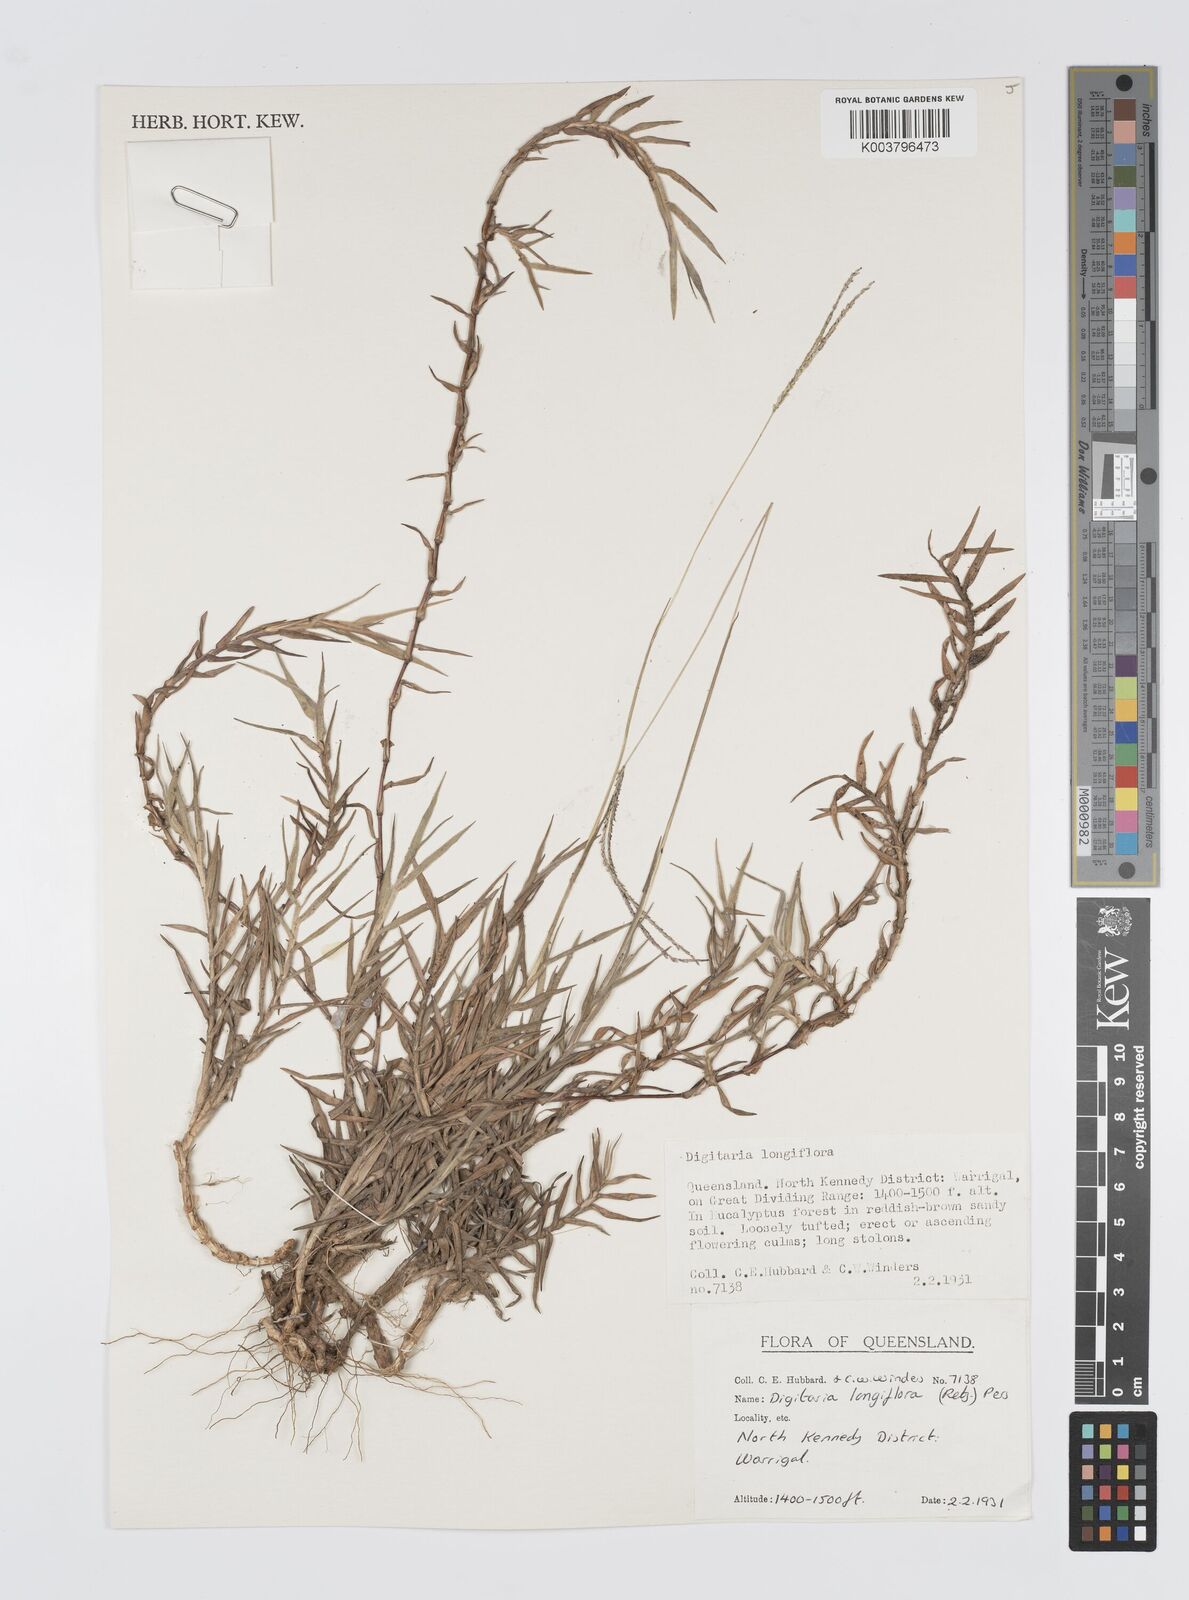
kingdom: Plantae
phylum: Tracheophyta
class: Liliopsida
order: Poales
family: Poaceae
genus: Digitaria
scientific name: Digitaria longiflora
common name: Wire crabgrass
